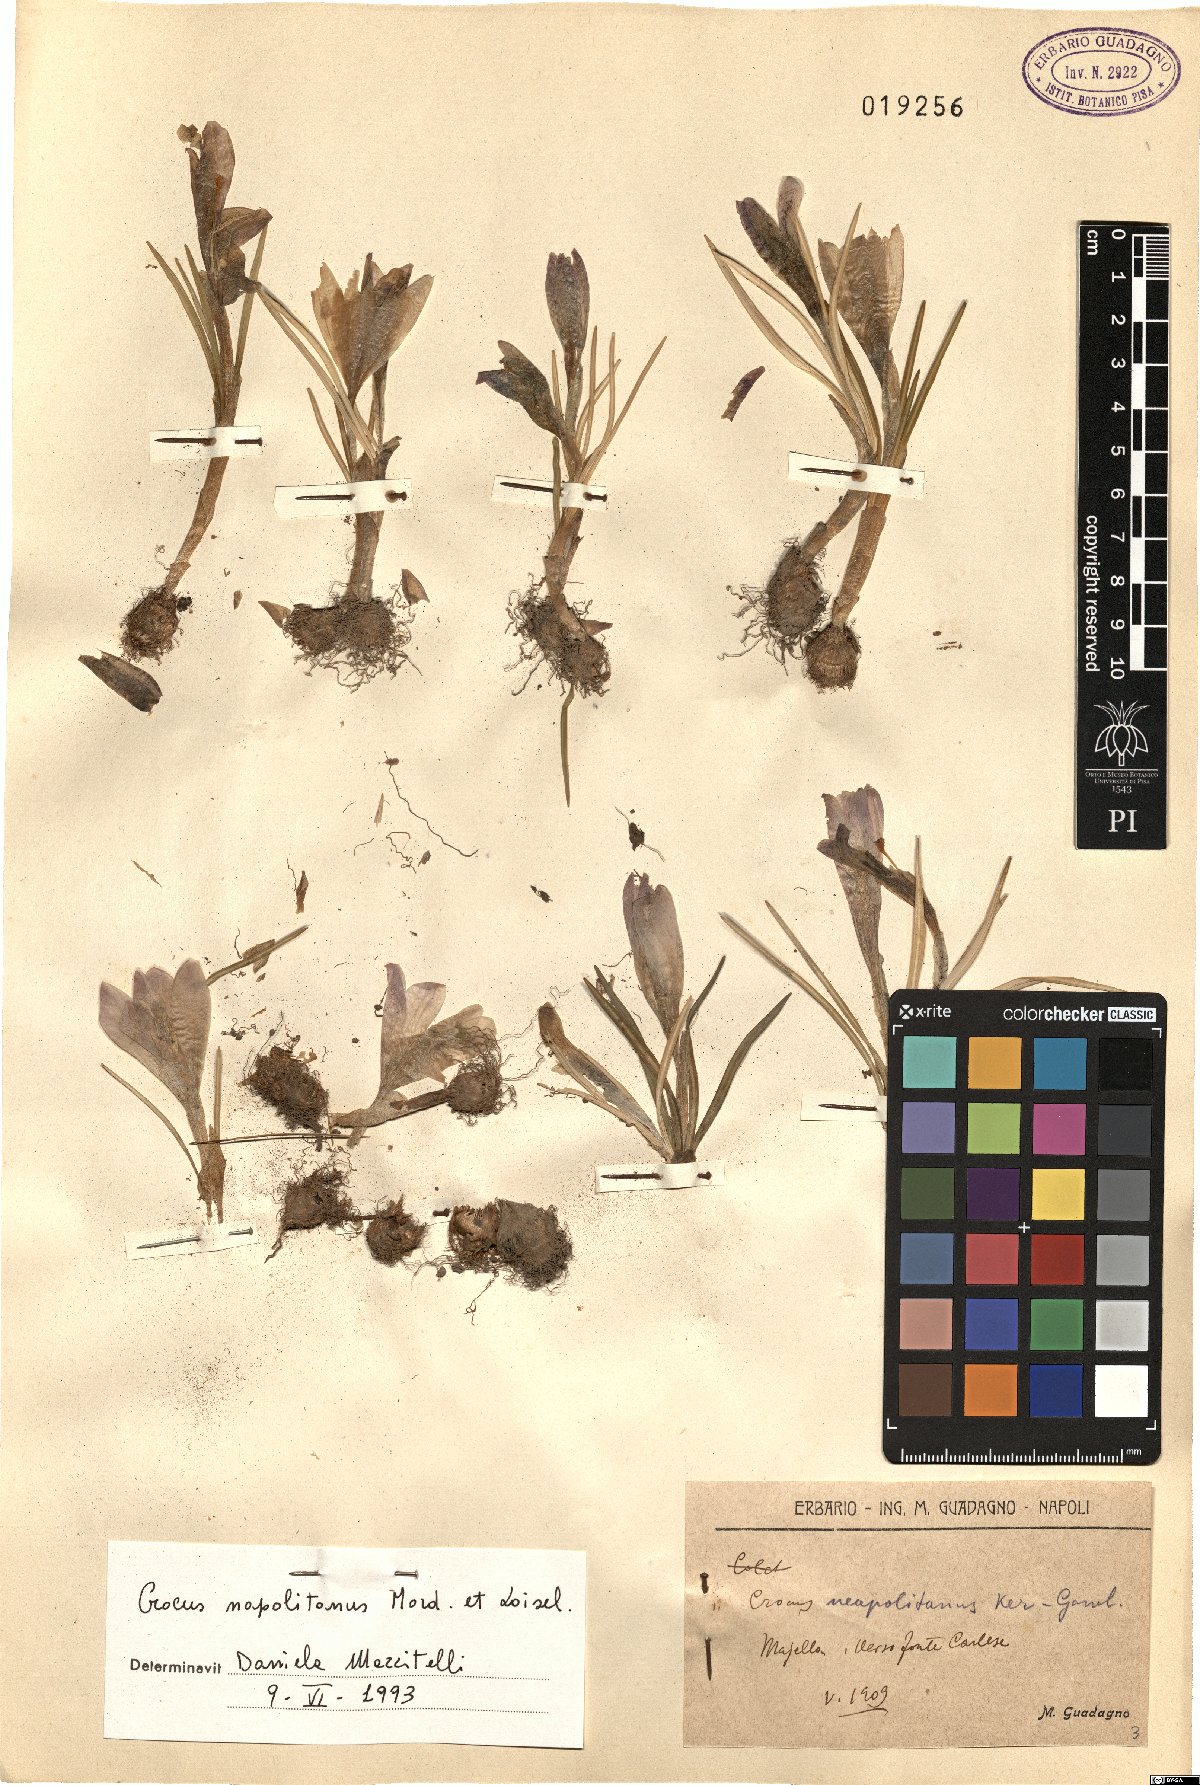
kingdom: Plantae
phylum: Tracheophyta
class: Liliopsida
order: Asparagales
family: Iridaceae
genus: Crocus
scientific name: Crocus neapolitanus
